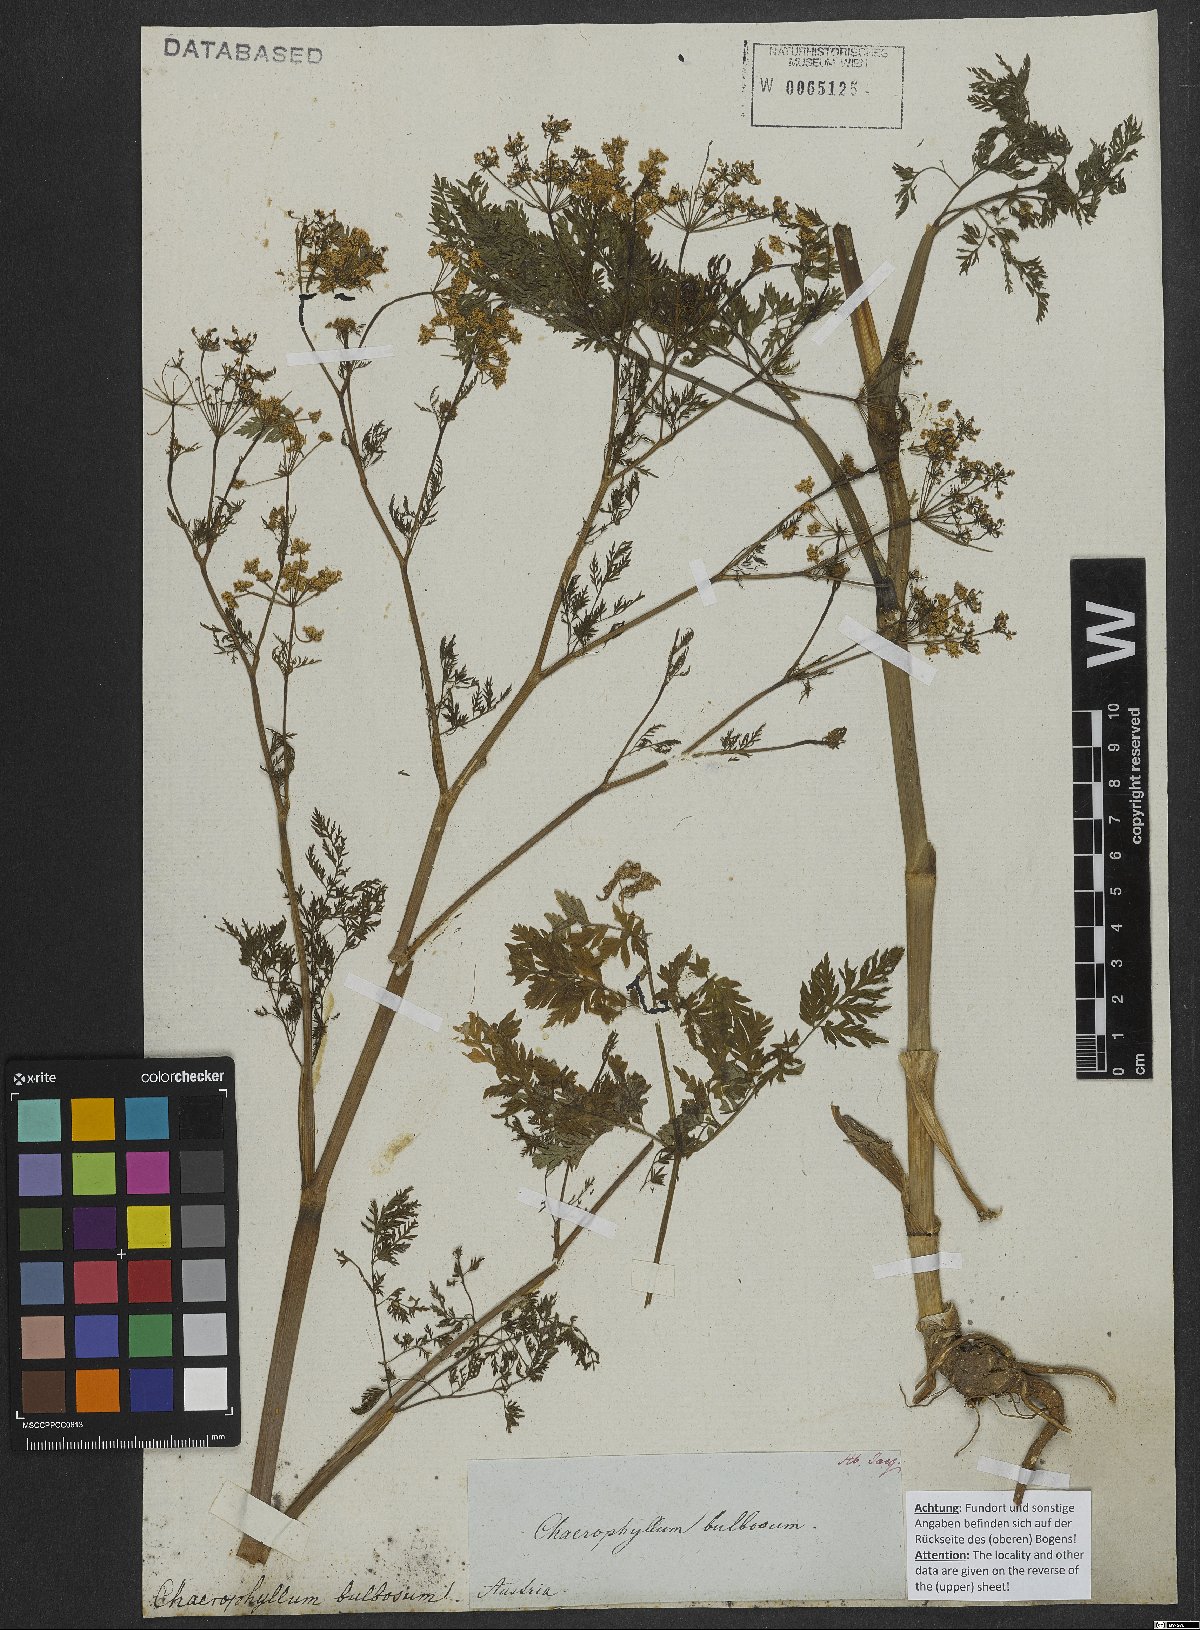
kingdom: Plantae
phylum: Tracheophyta
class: Magnoliopsida
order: Apiales
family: Apiaceae
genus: Chaerophyllum
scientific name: Chaerophyllum bulbosum
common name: Bulbous chervil
